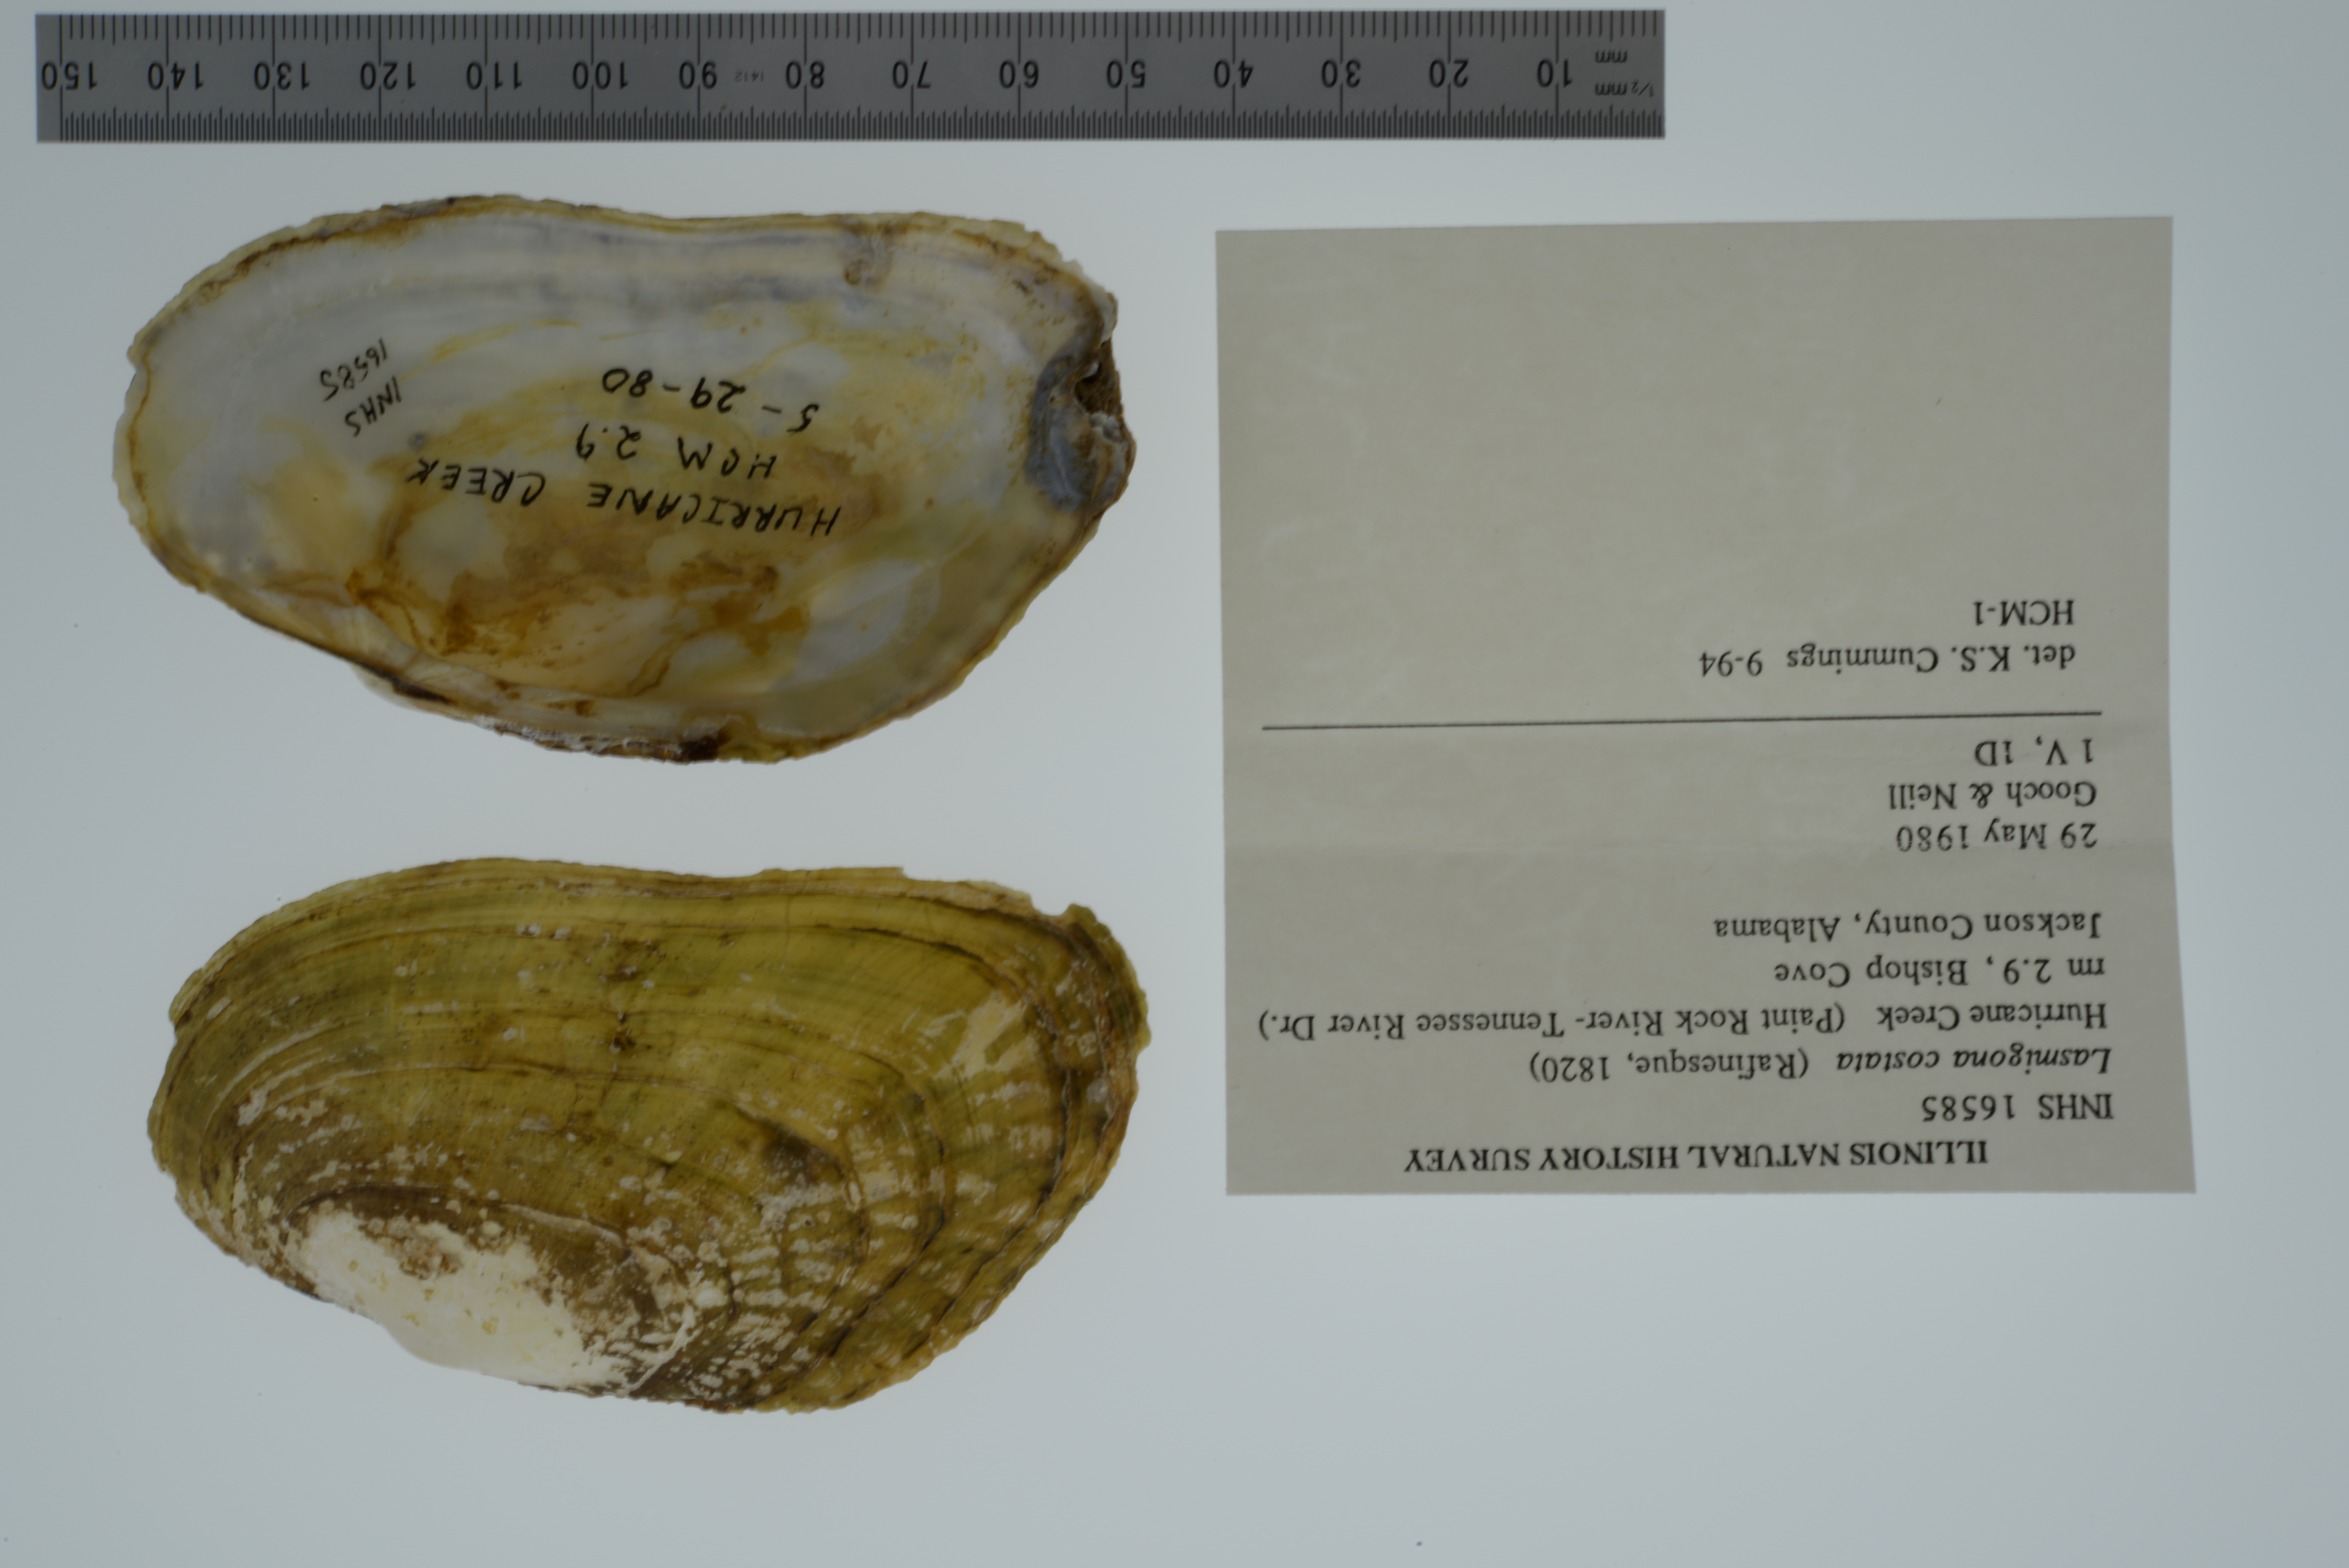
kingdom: Animalia
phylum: Mollusca
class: Bivalvia
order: Unionida
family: Unionidae
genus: Lasmigona
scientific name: Lasmigona costata
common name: Flutedshell
